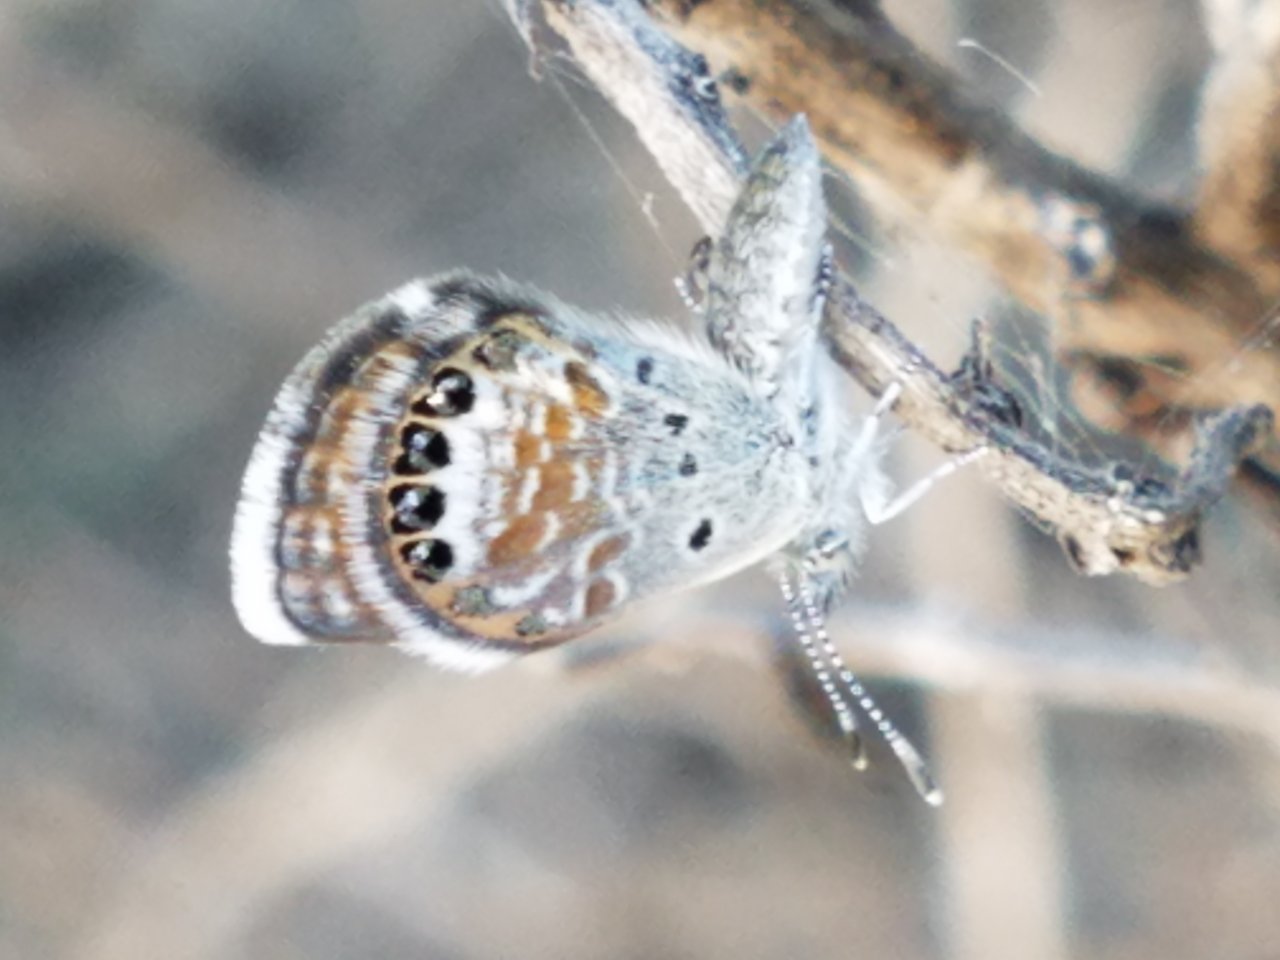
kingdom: Animalia
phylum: Arthropoda
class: Insecta
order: Lepidoptera
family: Lycaenidae
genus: Brephidium
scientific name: Brephidium exilis
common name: Western Pygmy-Blue
